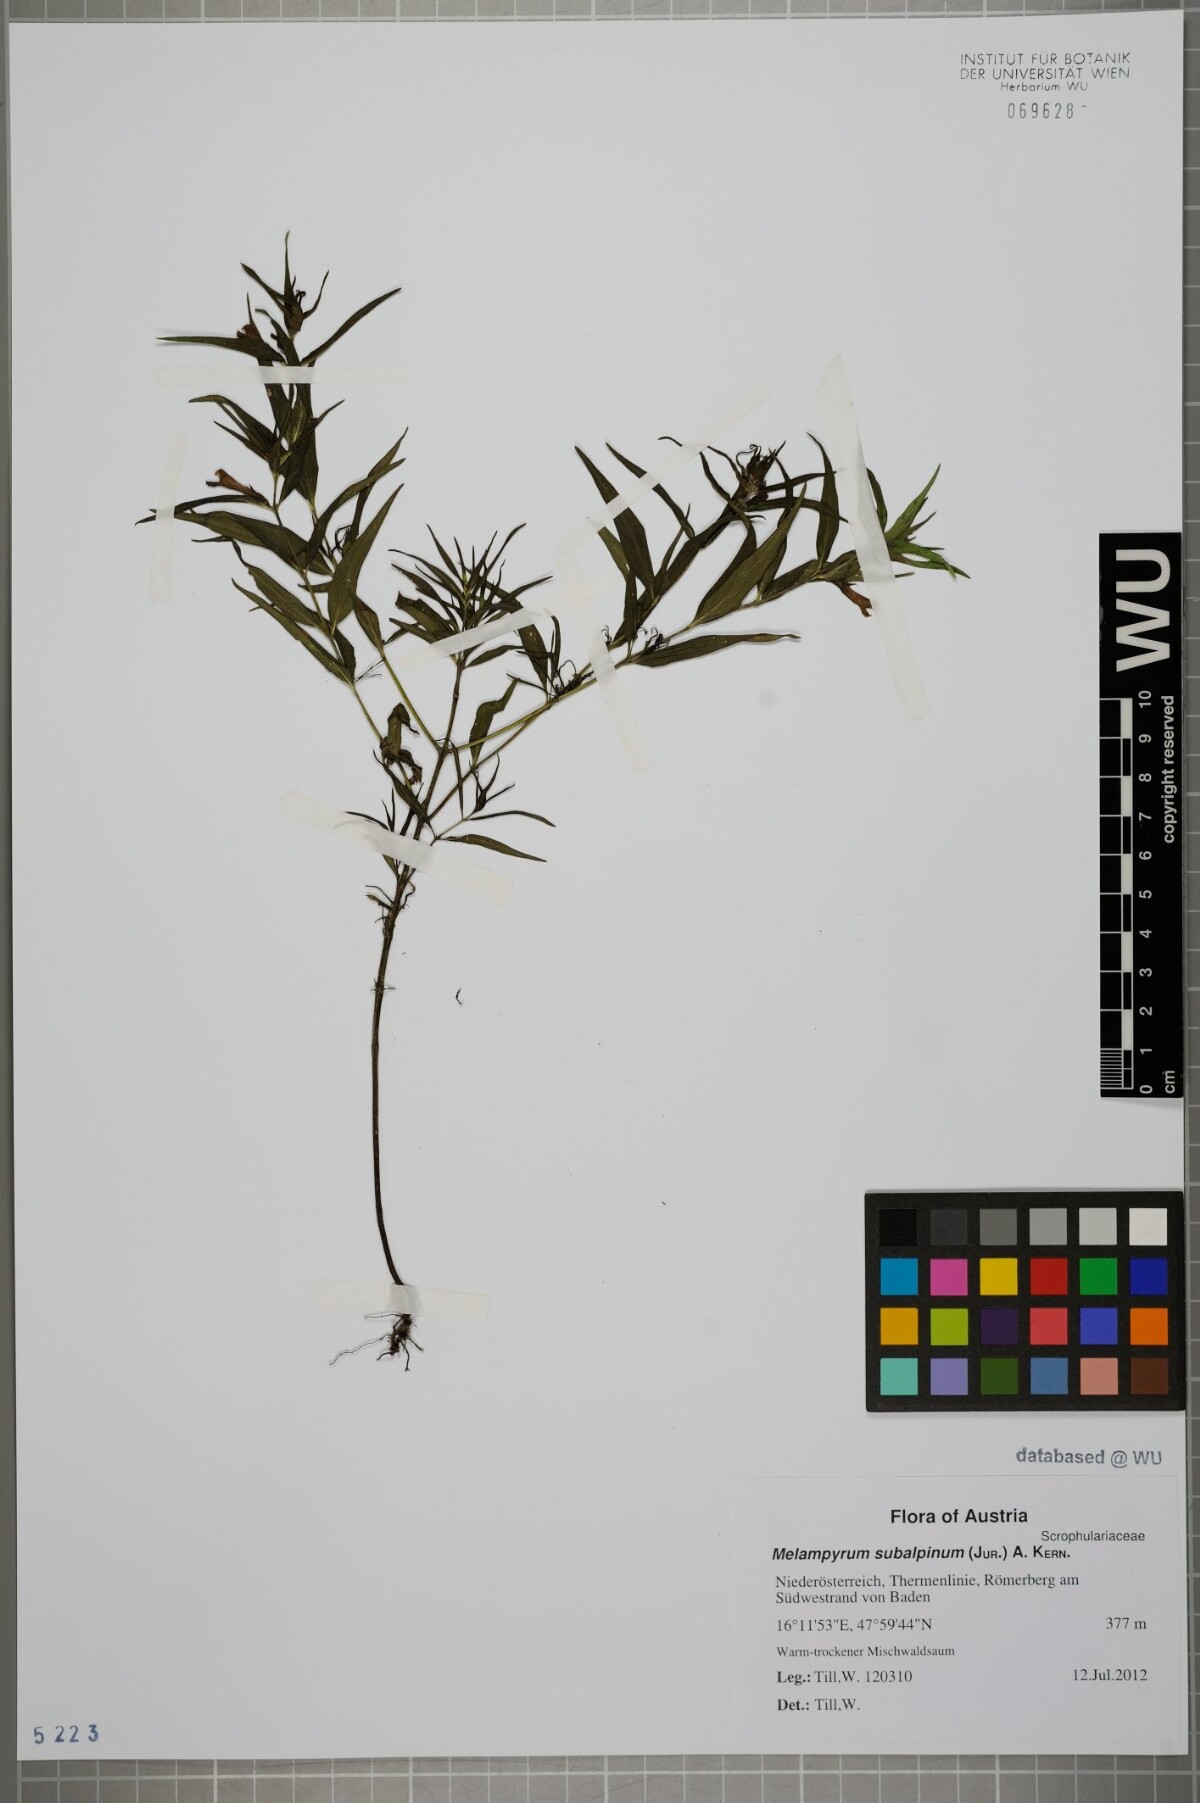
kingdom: Plantae
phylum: Tracheophyta
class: Magnoliopsida
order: Lamiales
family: Orobanchaceae
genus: Melampyrum
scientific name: Melampyrum subalpinum
